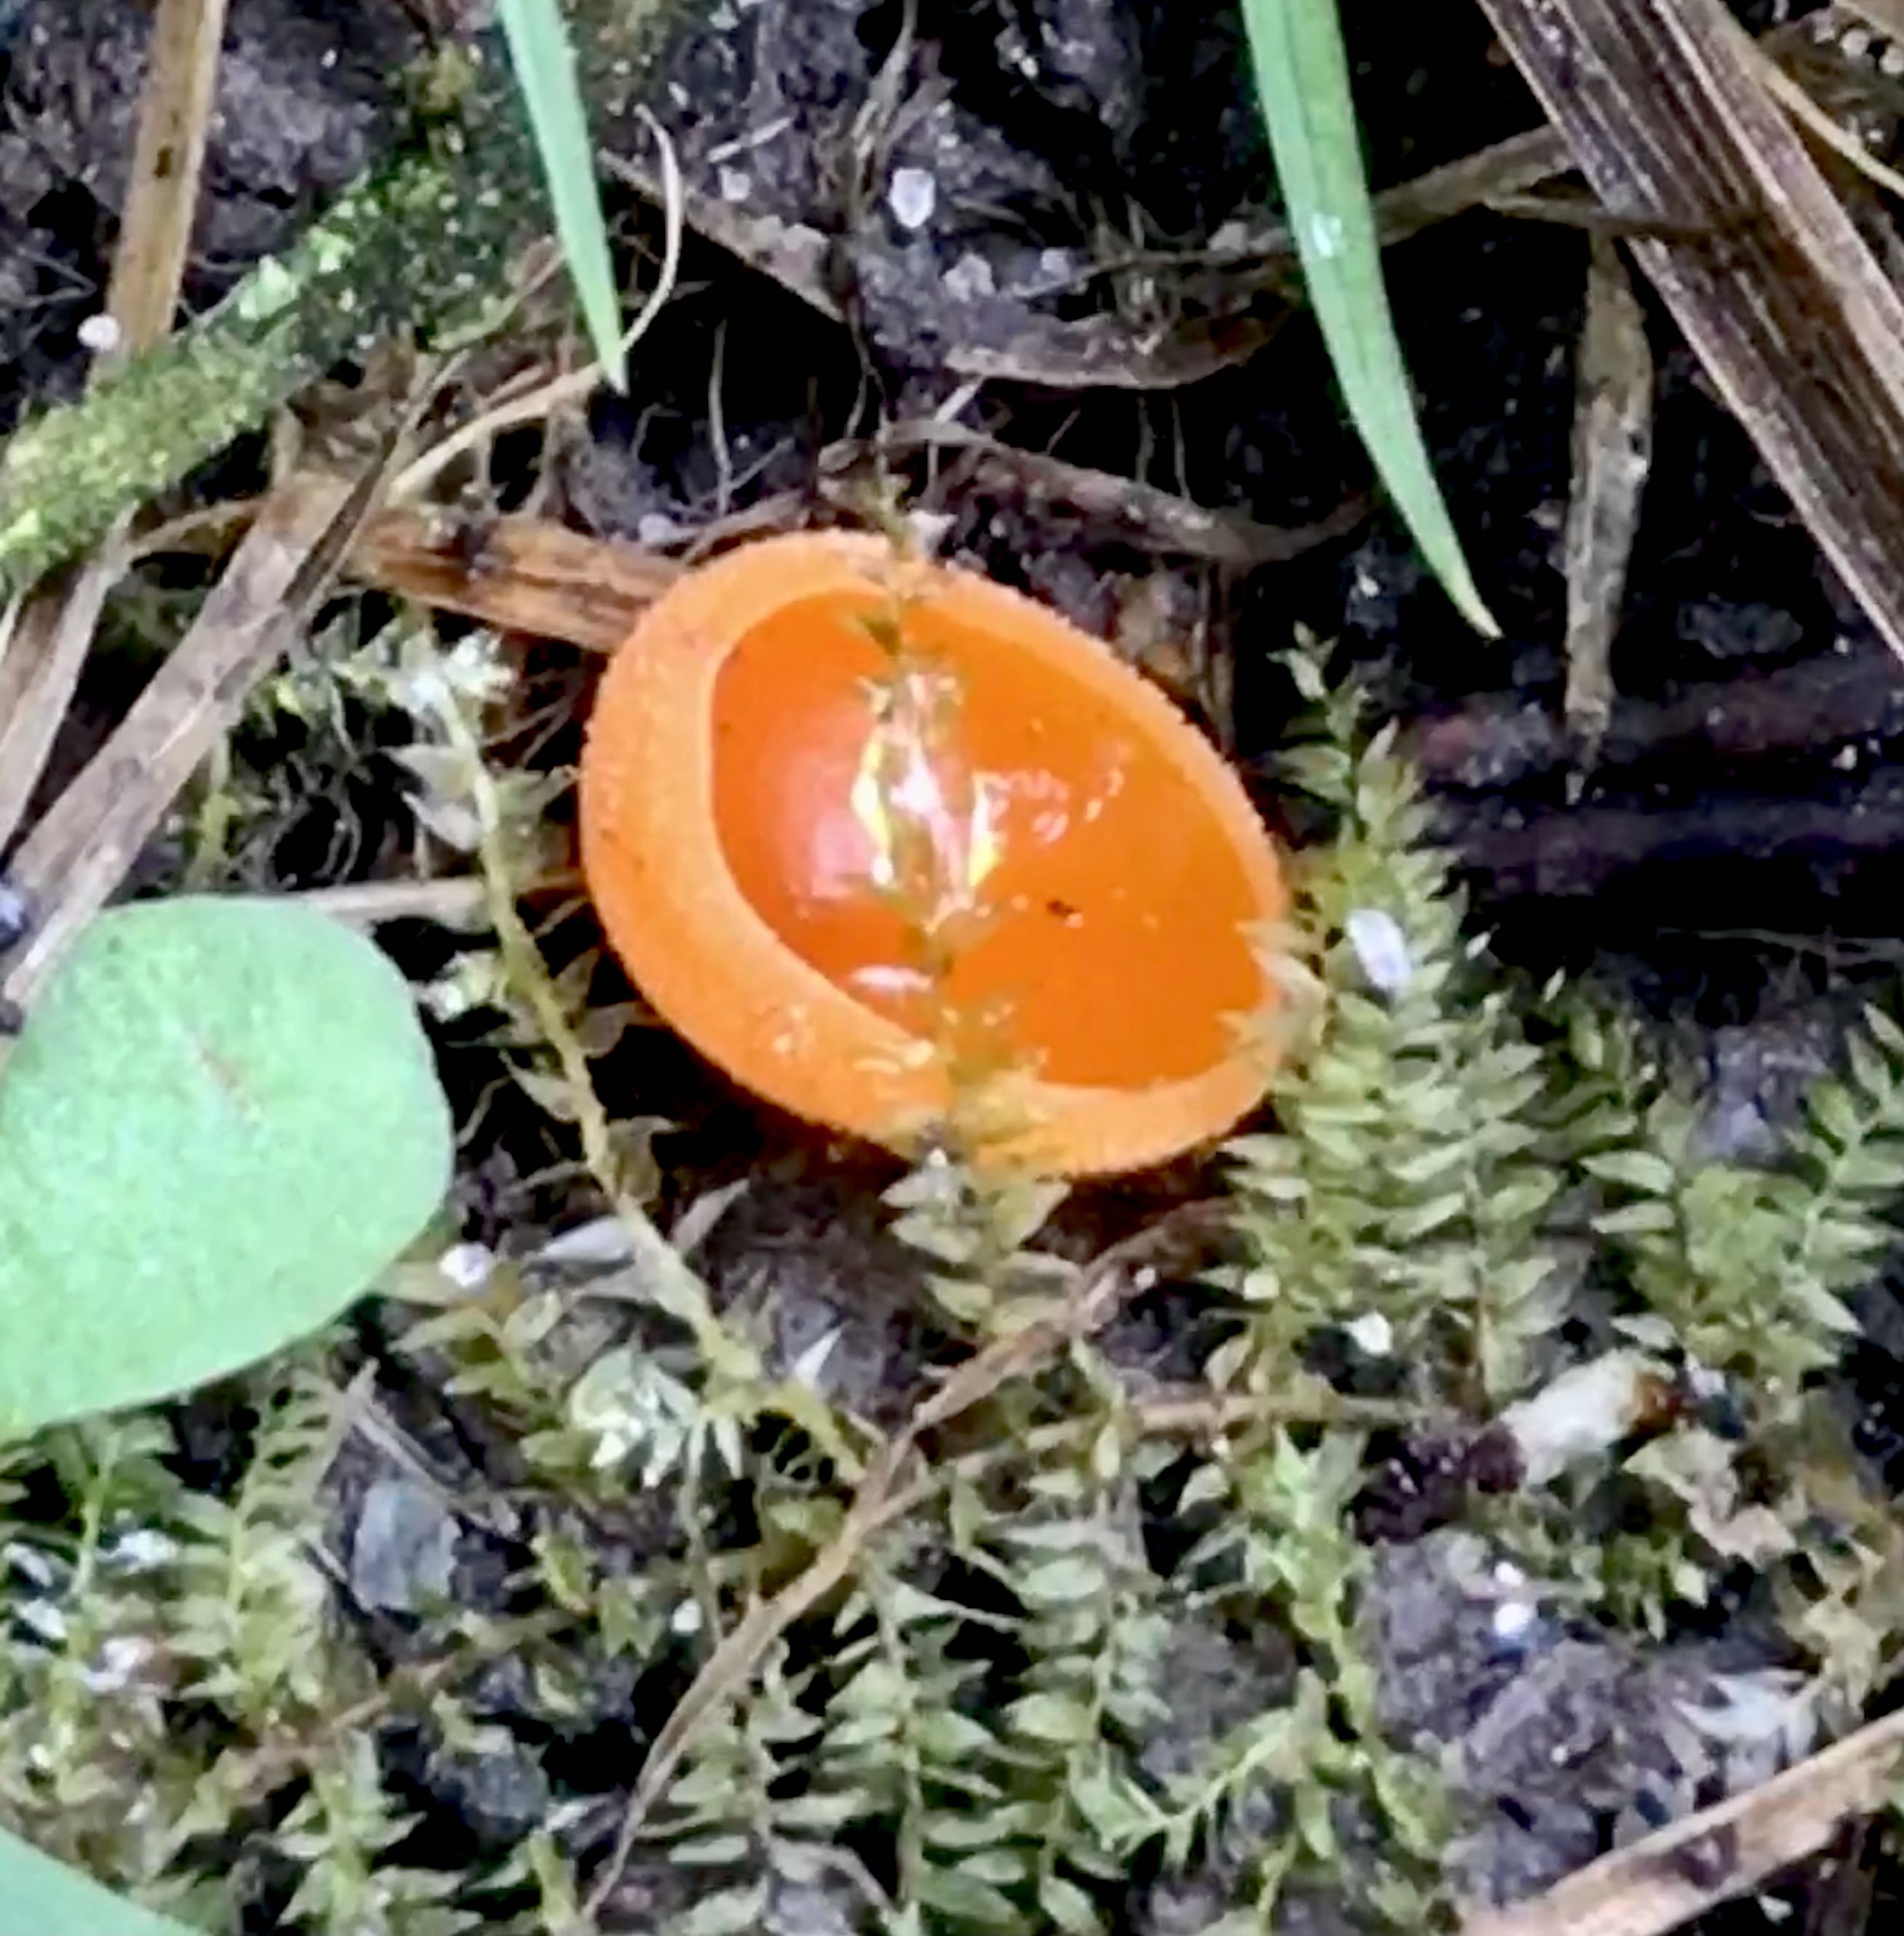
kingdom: Fungi
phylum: Ascomycota
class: Pezizomycetes
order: Pezizales
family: Pyronemataceae
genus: Aleuria
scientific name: Aleuria aurantia
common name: almindelig orangebæger
